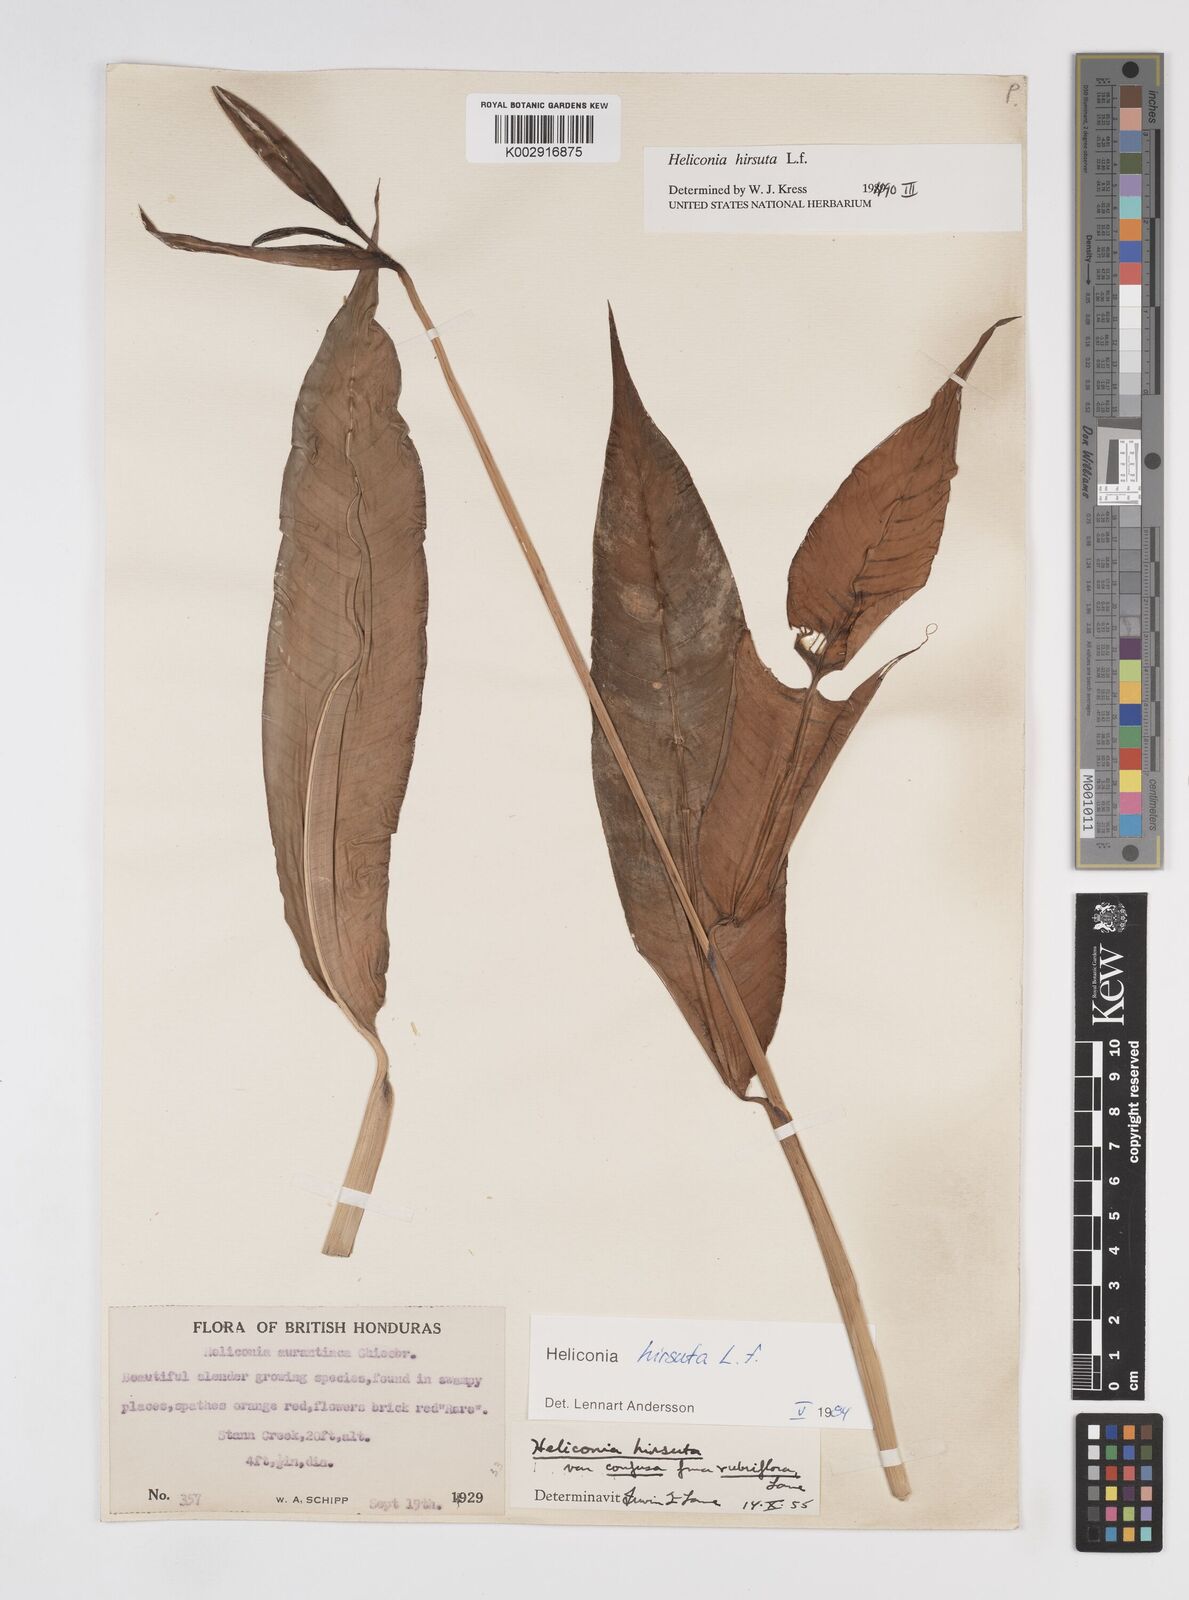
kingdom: Plantae
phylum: Tracheophyta
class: Liliopsida
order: Zingiberales
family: Heliconiaceae
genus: Heliconia
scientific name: Heliconia hirsuta
